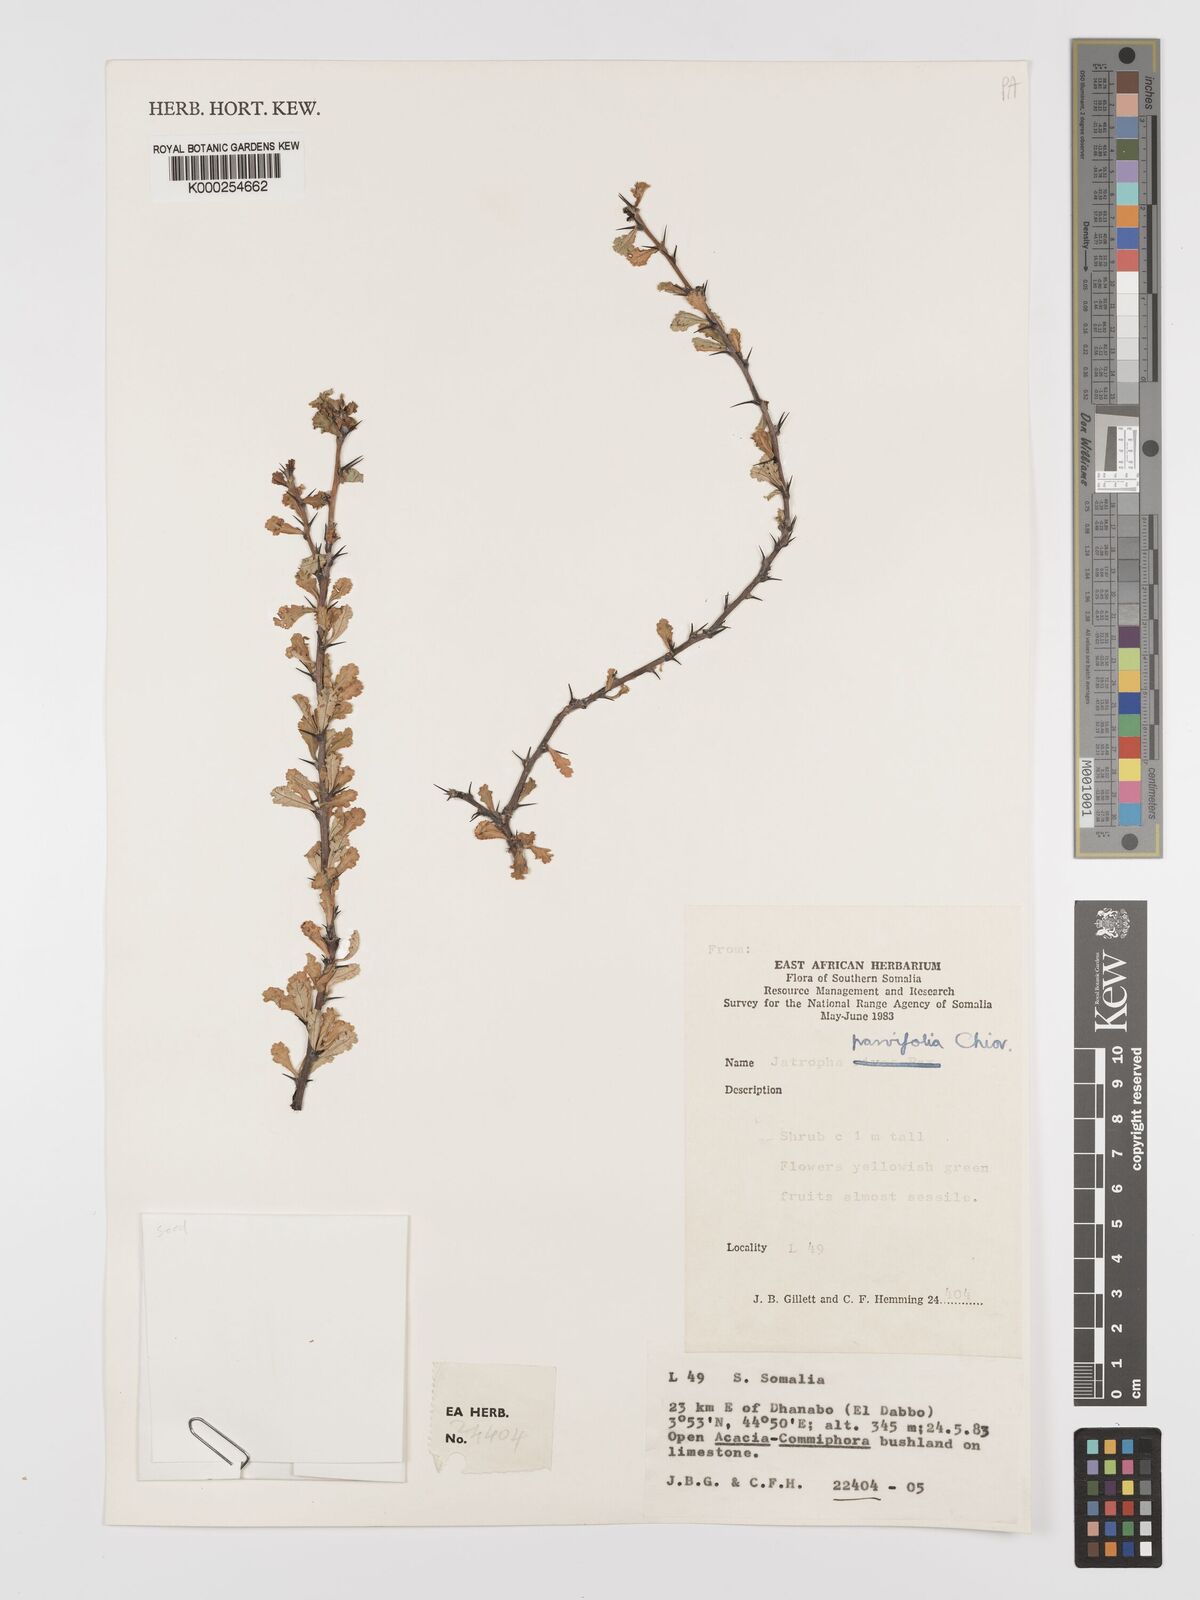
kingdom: Plantae
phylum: Tracheophyta
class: Magnoliopsida
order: Malpighiales
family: Euphorbiaceae
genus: Jatropha
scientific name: Jatropha rivae
